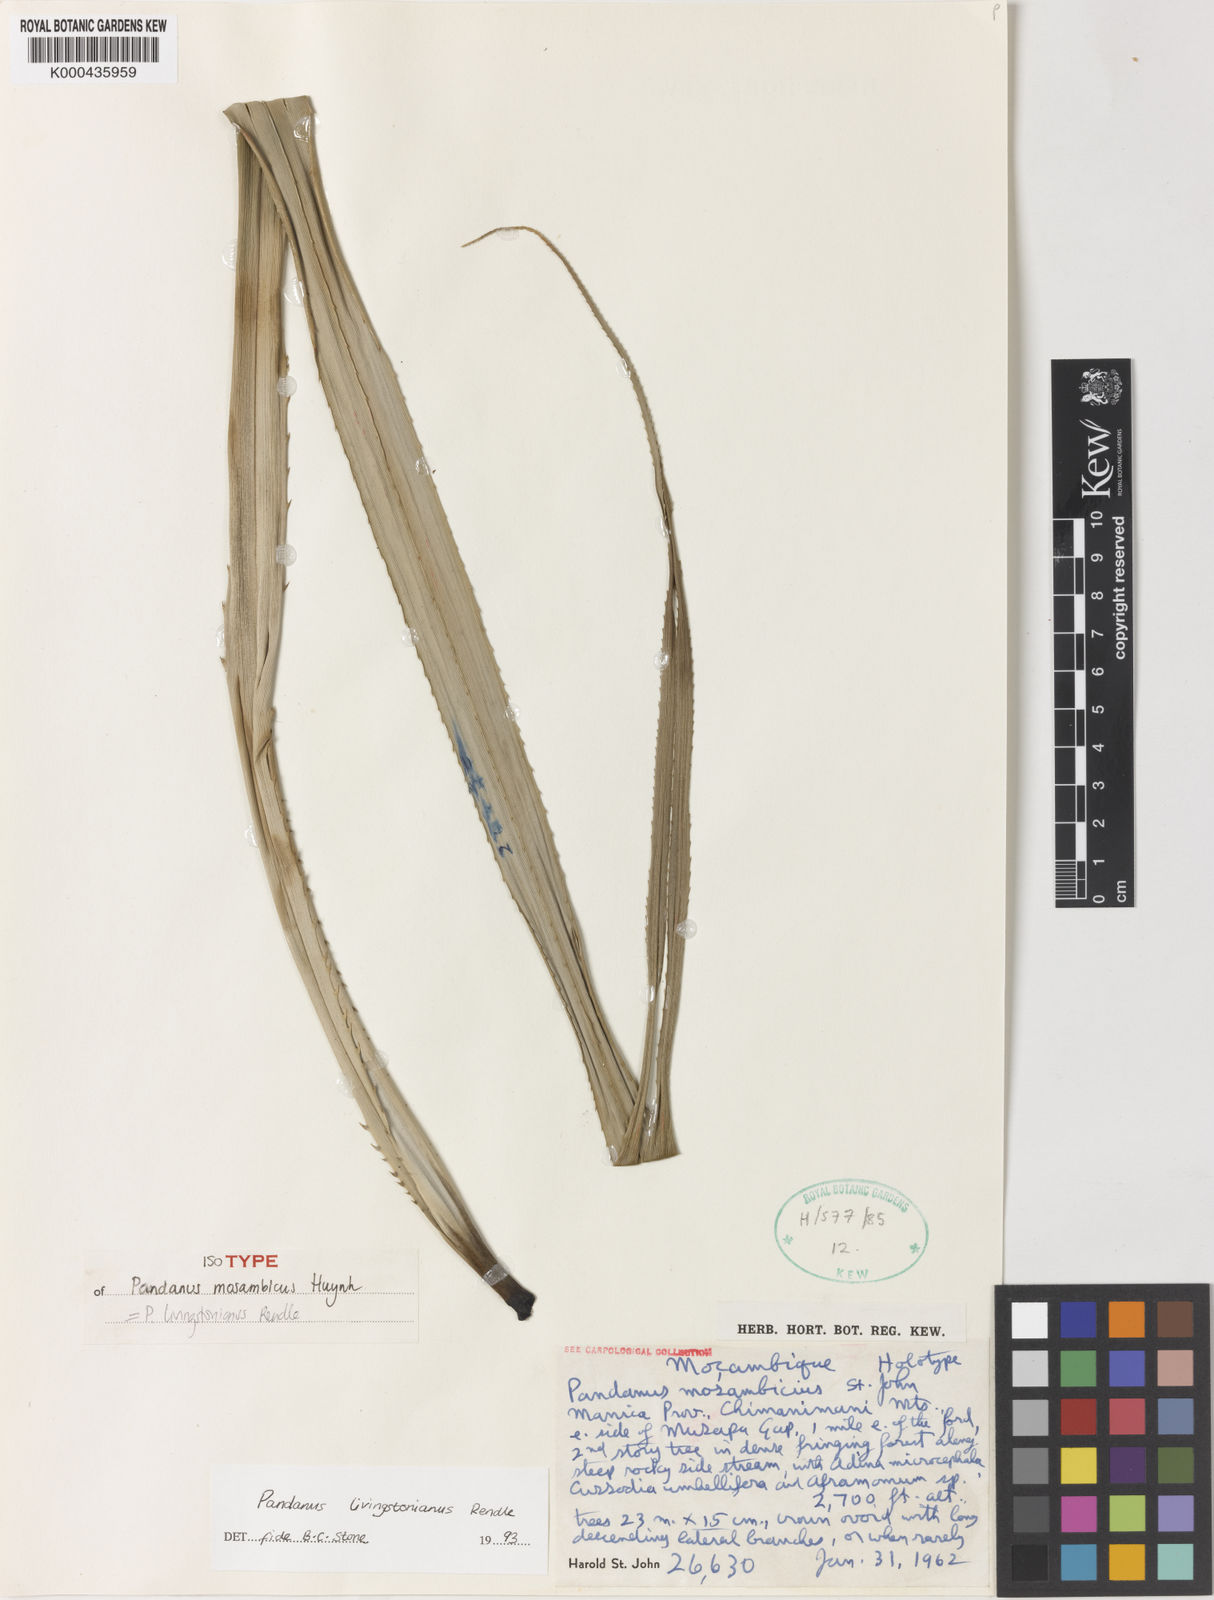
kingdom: Plantae
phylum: Tracheophyta
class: Liliopsida
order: Pandanales
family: Pandanaceae
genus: Pandanus
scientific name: Pandanus livingstonianus
